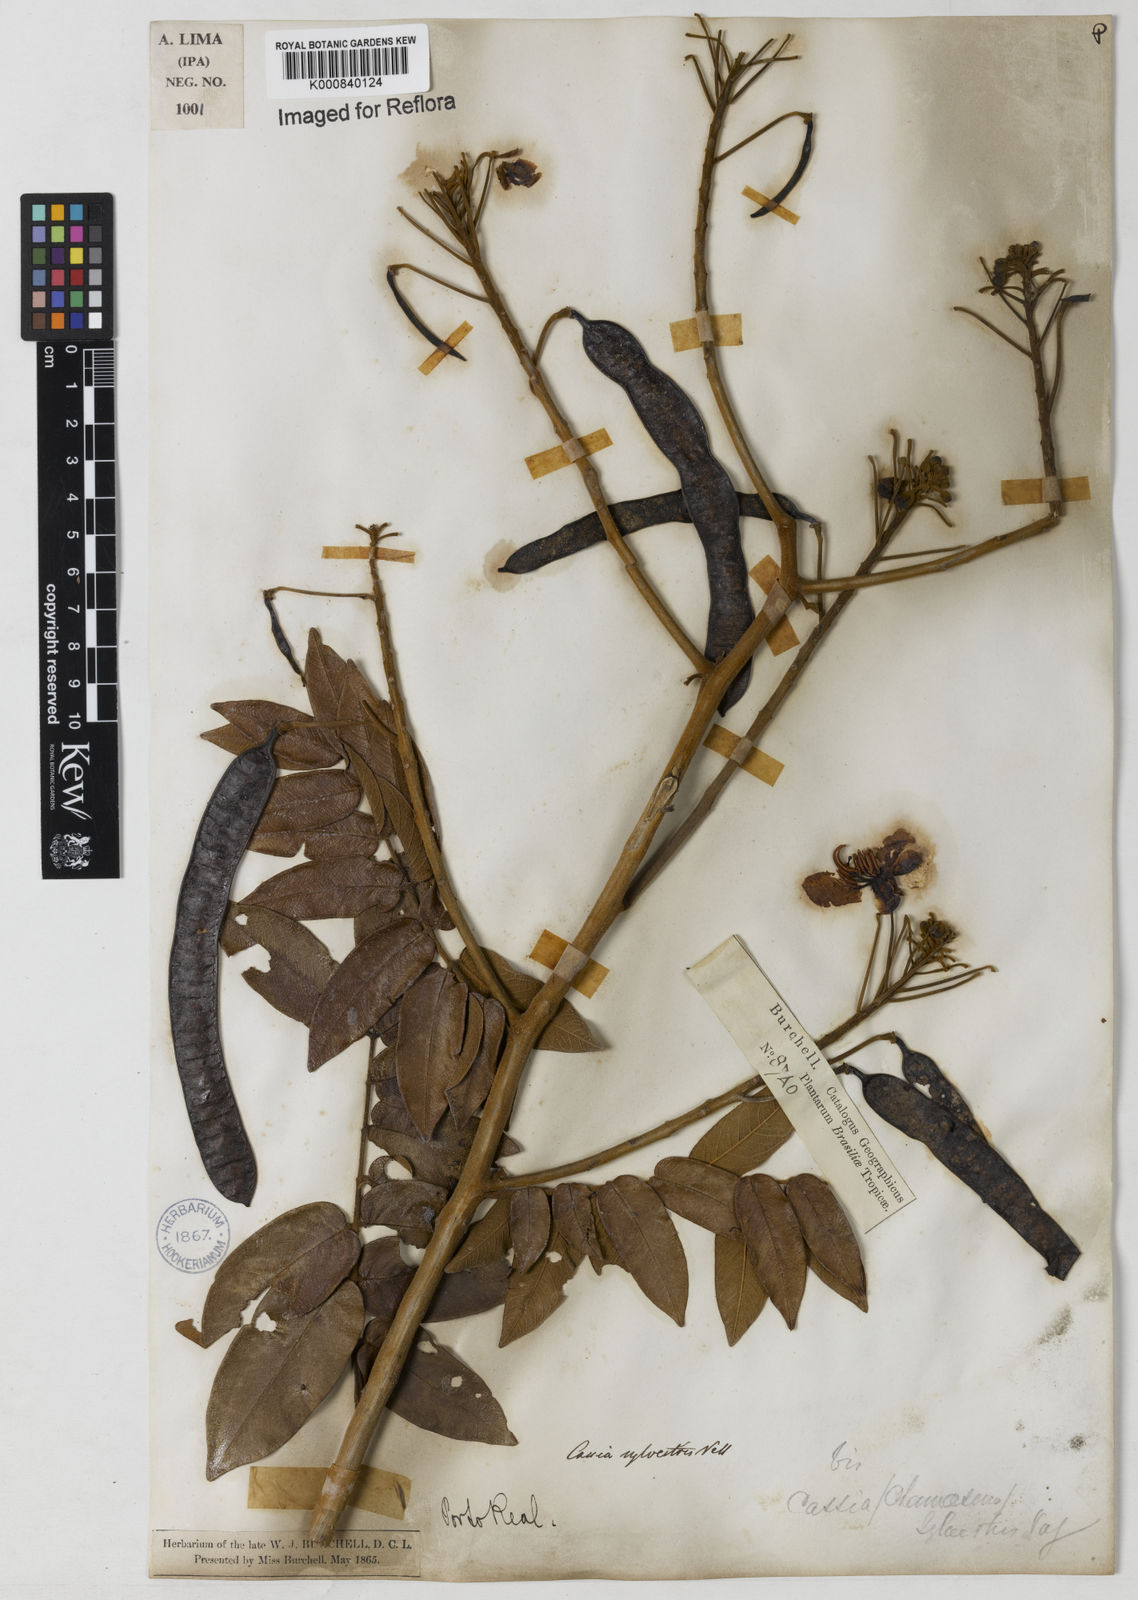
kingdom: Plantae
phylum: Tracheophyta
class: Magnoliopsida
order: Fabales
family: Fabaceae
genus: Senna
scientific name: Senna silvestris
